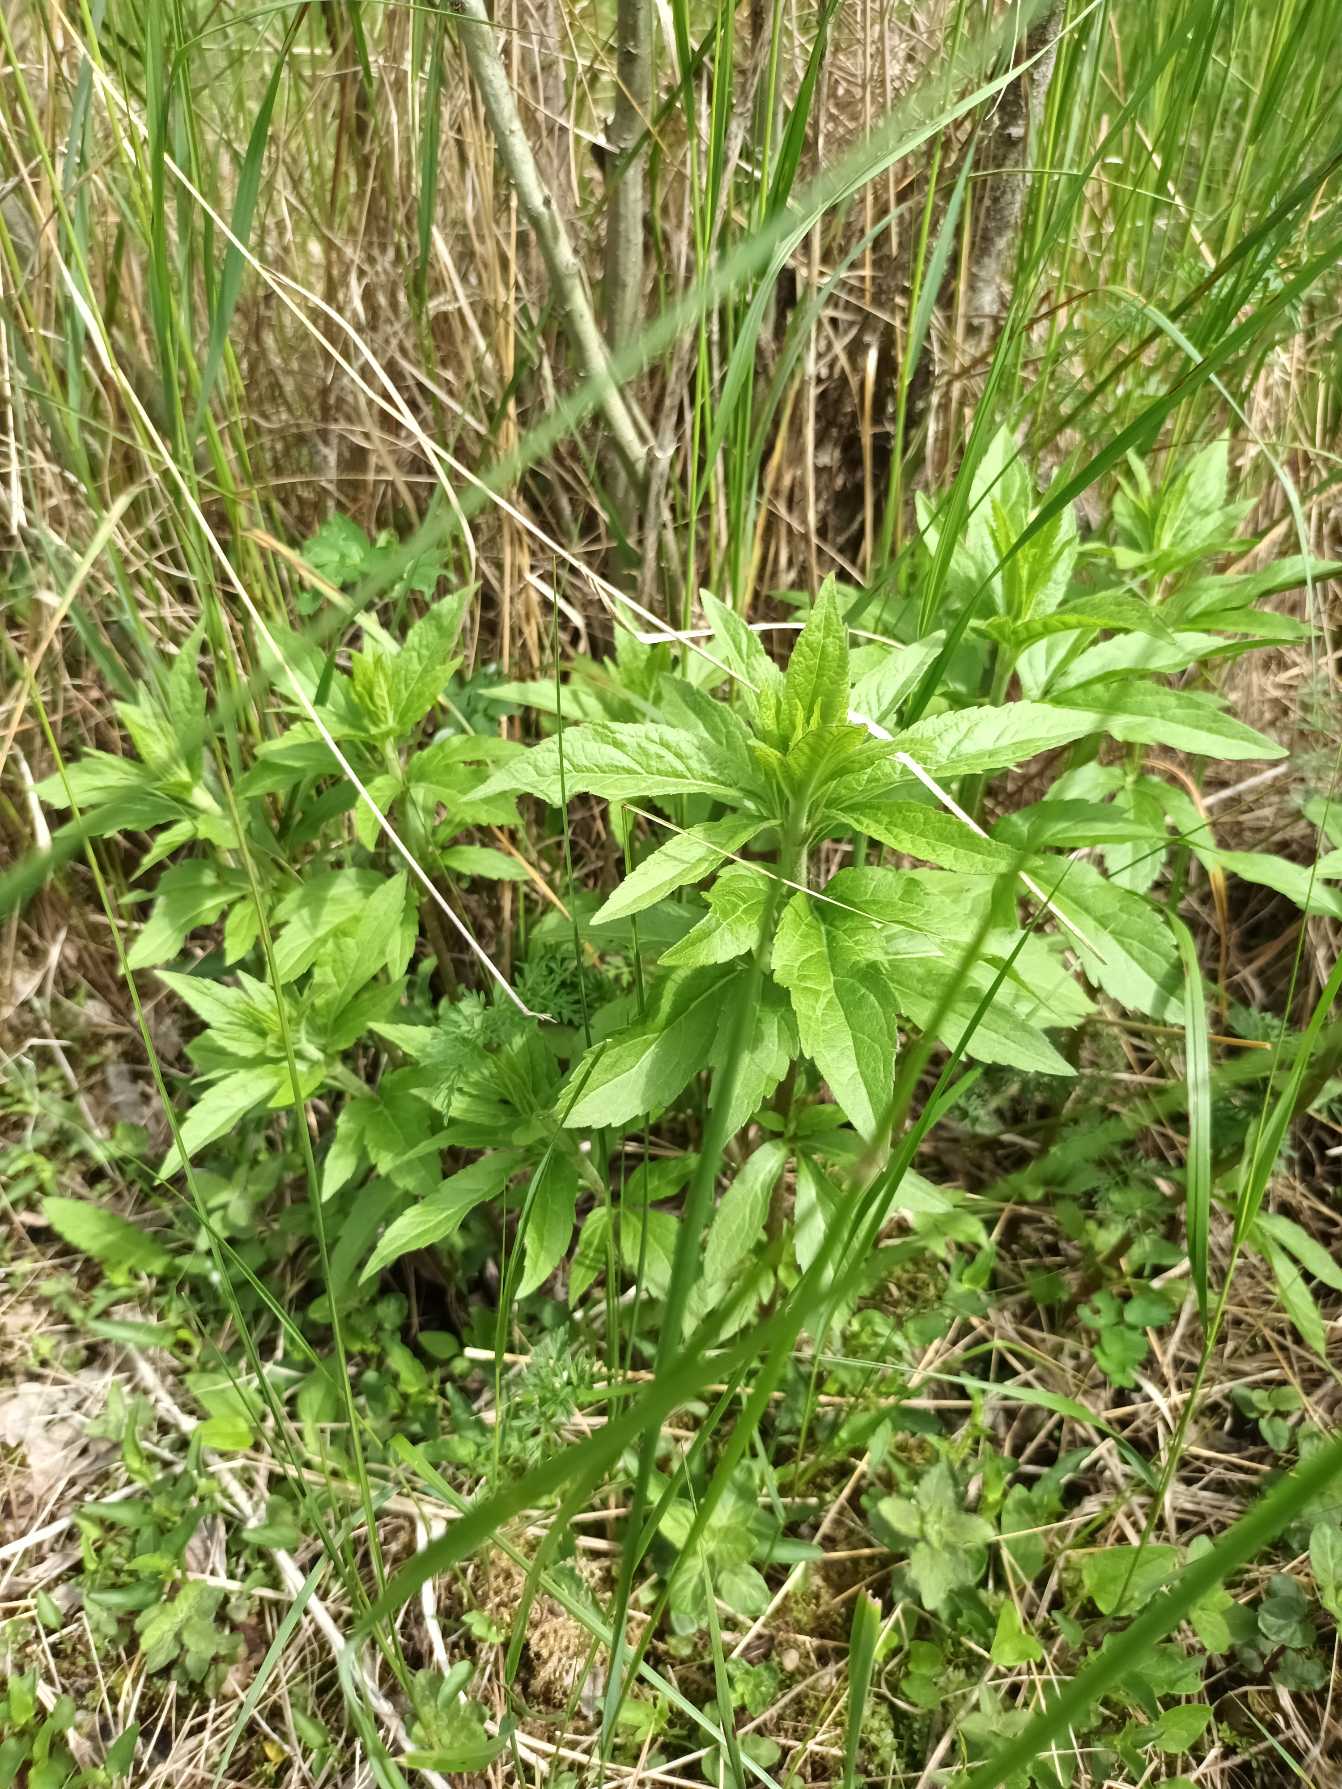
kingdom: Plantae
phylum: Tracheophyta
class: Magnoliopsida
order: Asterales
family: Asteraceae
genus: Eupatorium
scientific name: Eupatorium cannabinum
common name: Hjortetrøst
